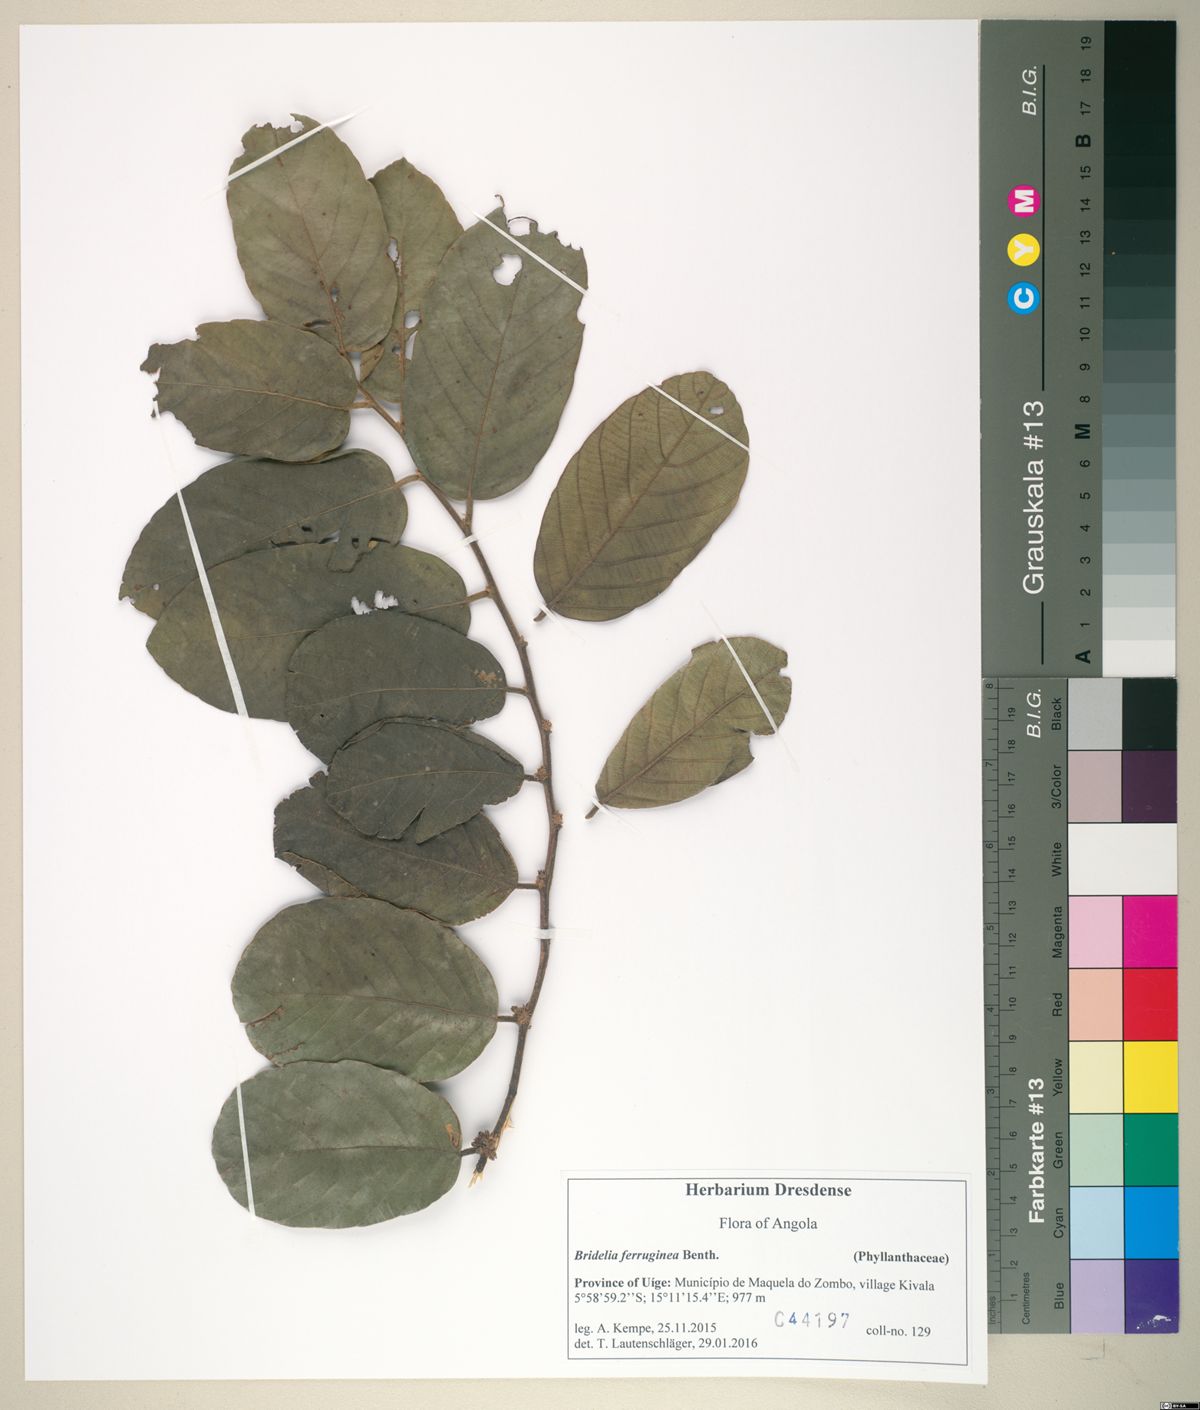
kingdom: Plantae
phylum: Tracheophyta
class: Magnoliopsida
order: Malpighiales
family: Phyllanthaceae
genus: Bridelia
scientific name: Bridelia ferruginea
